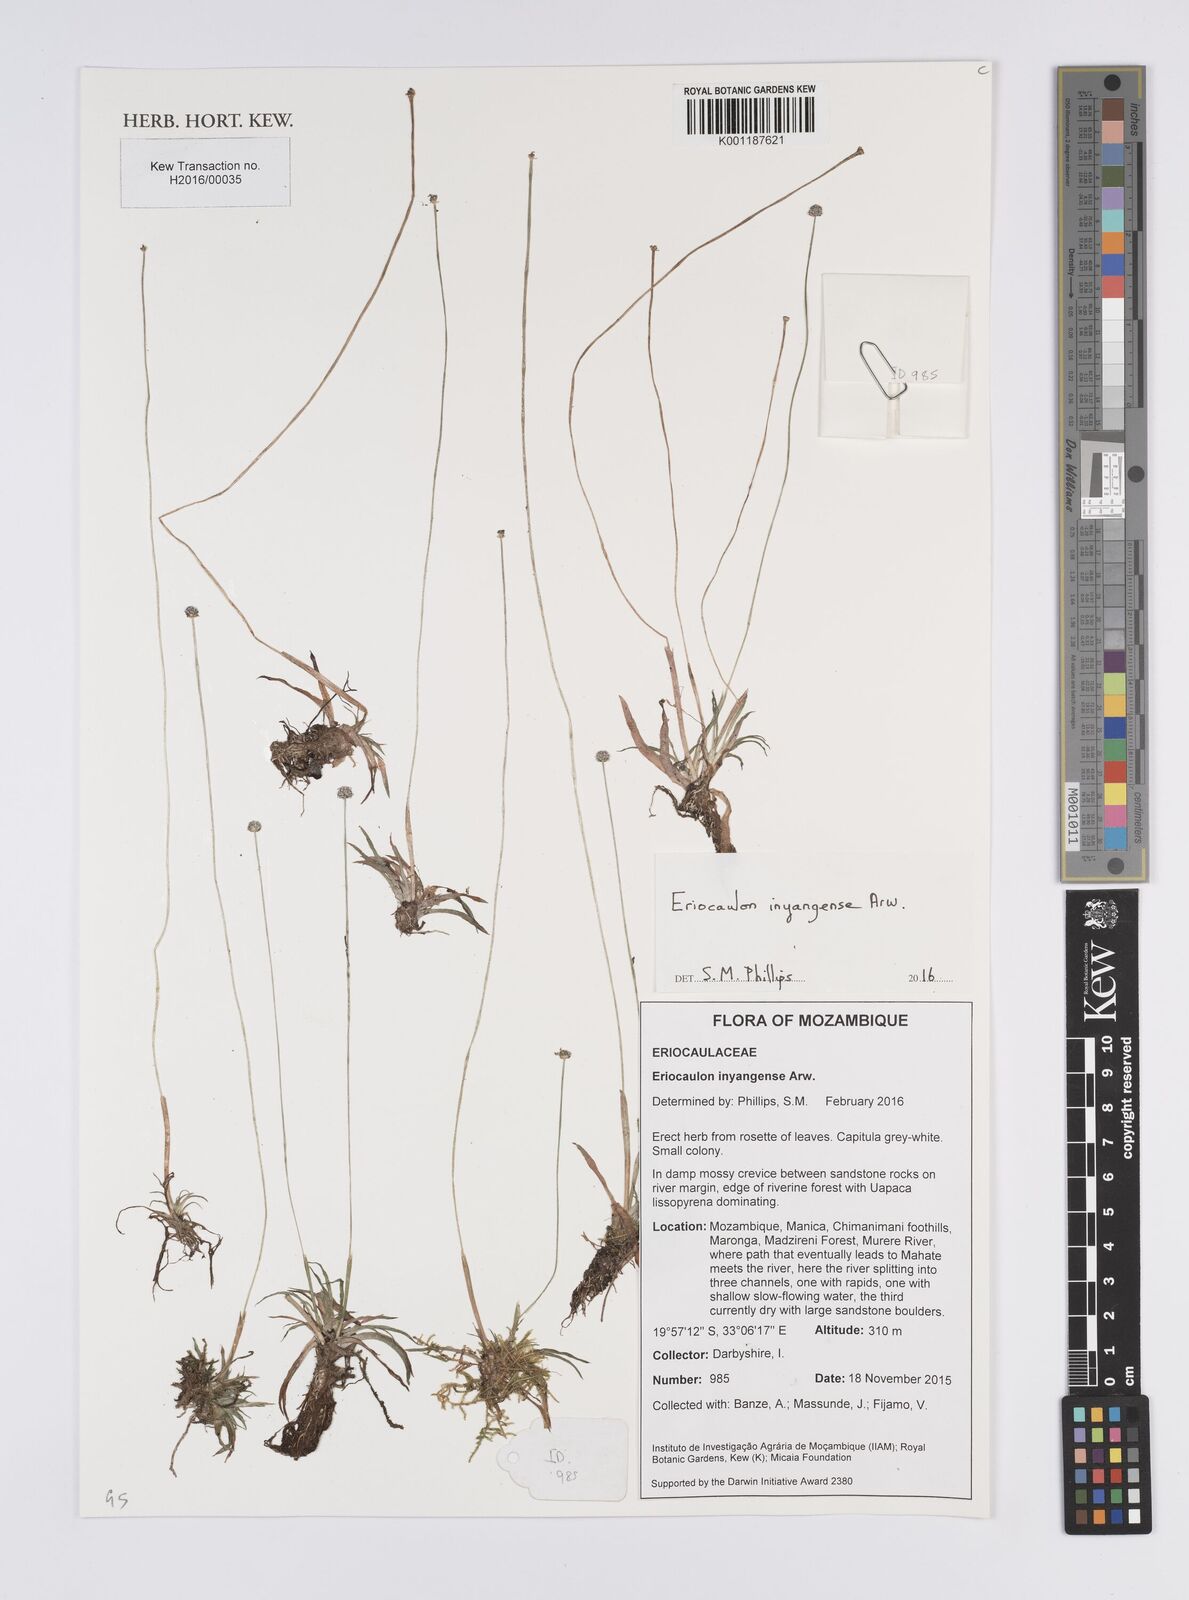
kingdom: Plantae
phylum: Tracheophyta
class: Liliopsida
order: Poales
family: Eriocaulaceae
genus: Eriocaulon
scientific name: Eriocaulon inyangense
